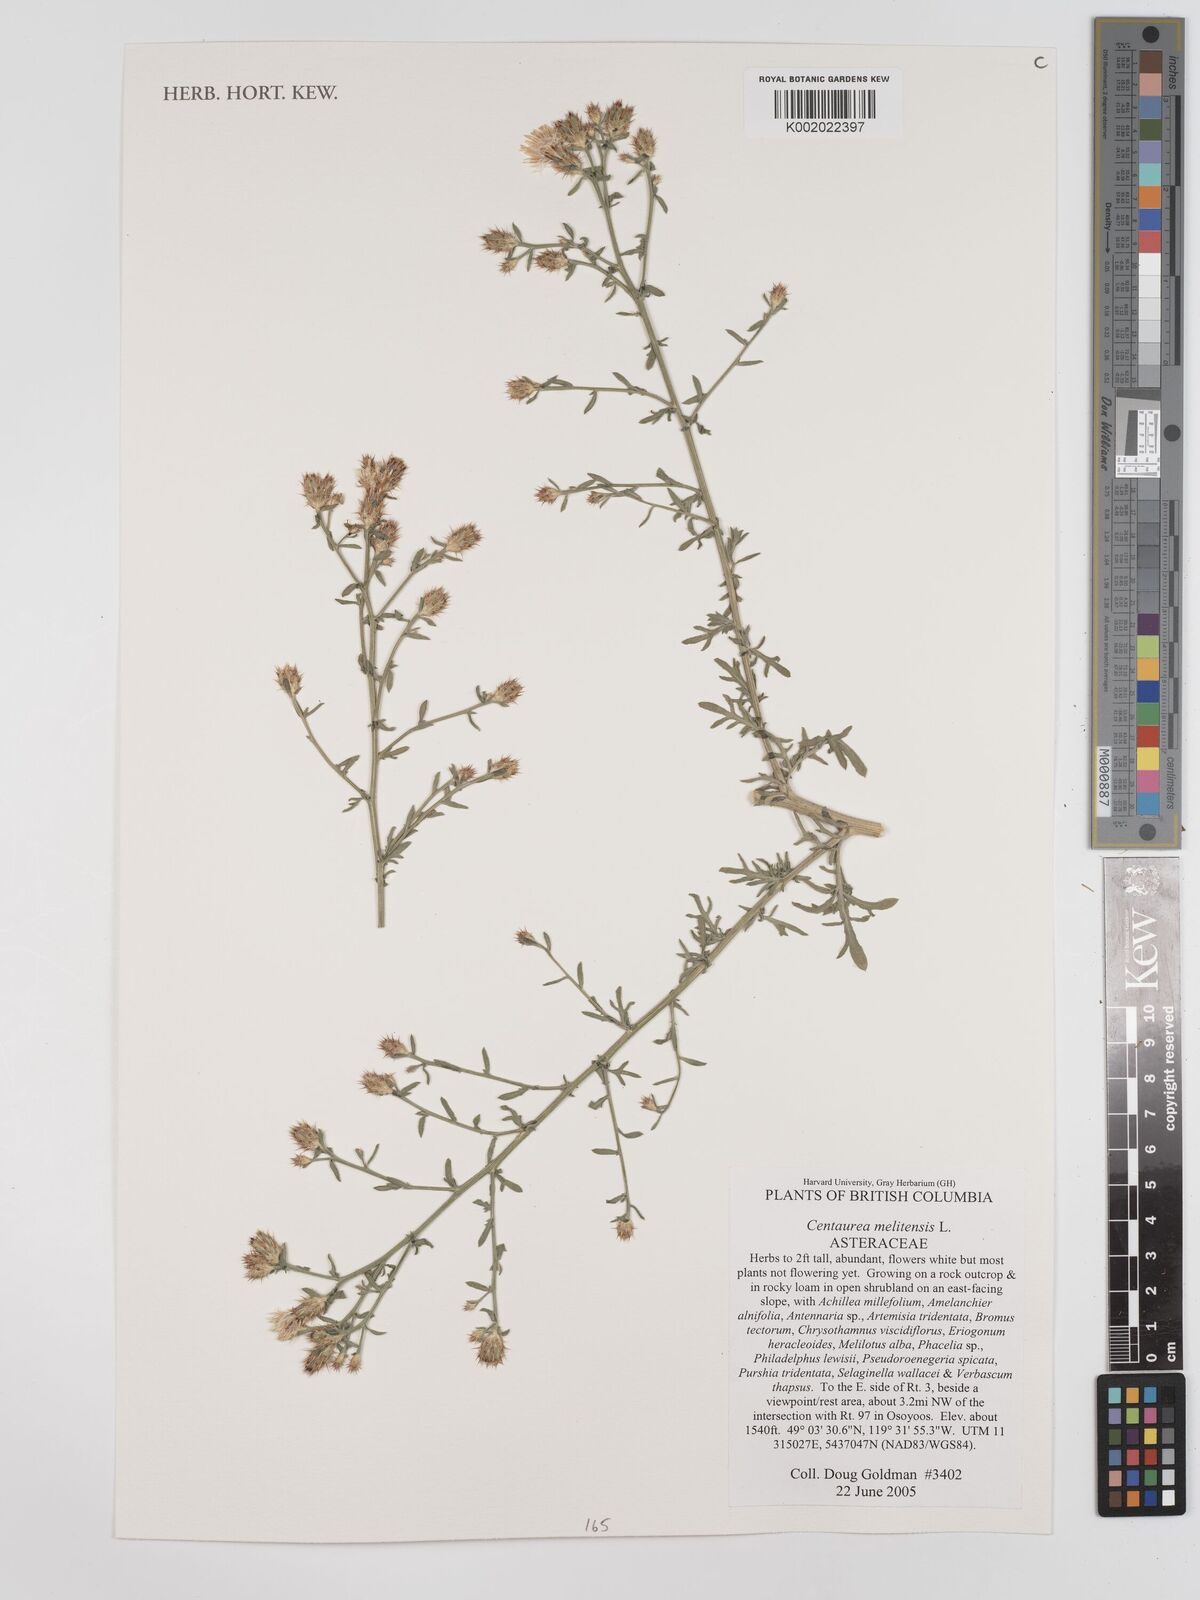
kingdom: Plantae
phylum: Tracheophyta
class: Magnoliopsida
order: Asterales
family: Asteraceae
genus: Centaurea
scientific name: Centaurea melitensis
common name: Maltese star-thistle
